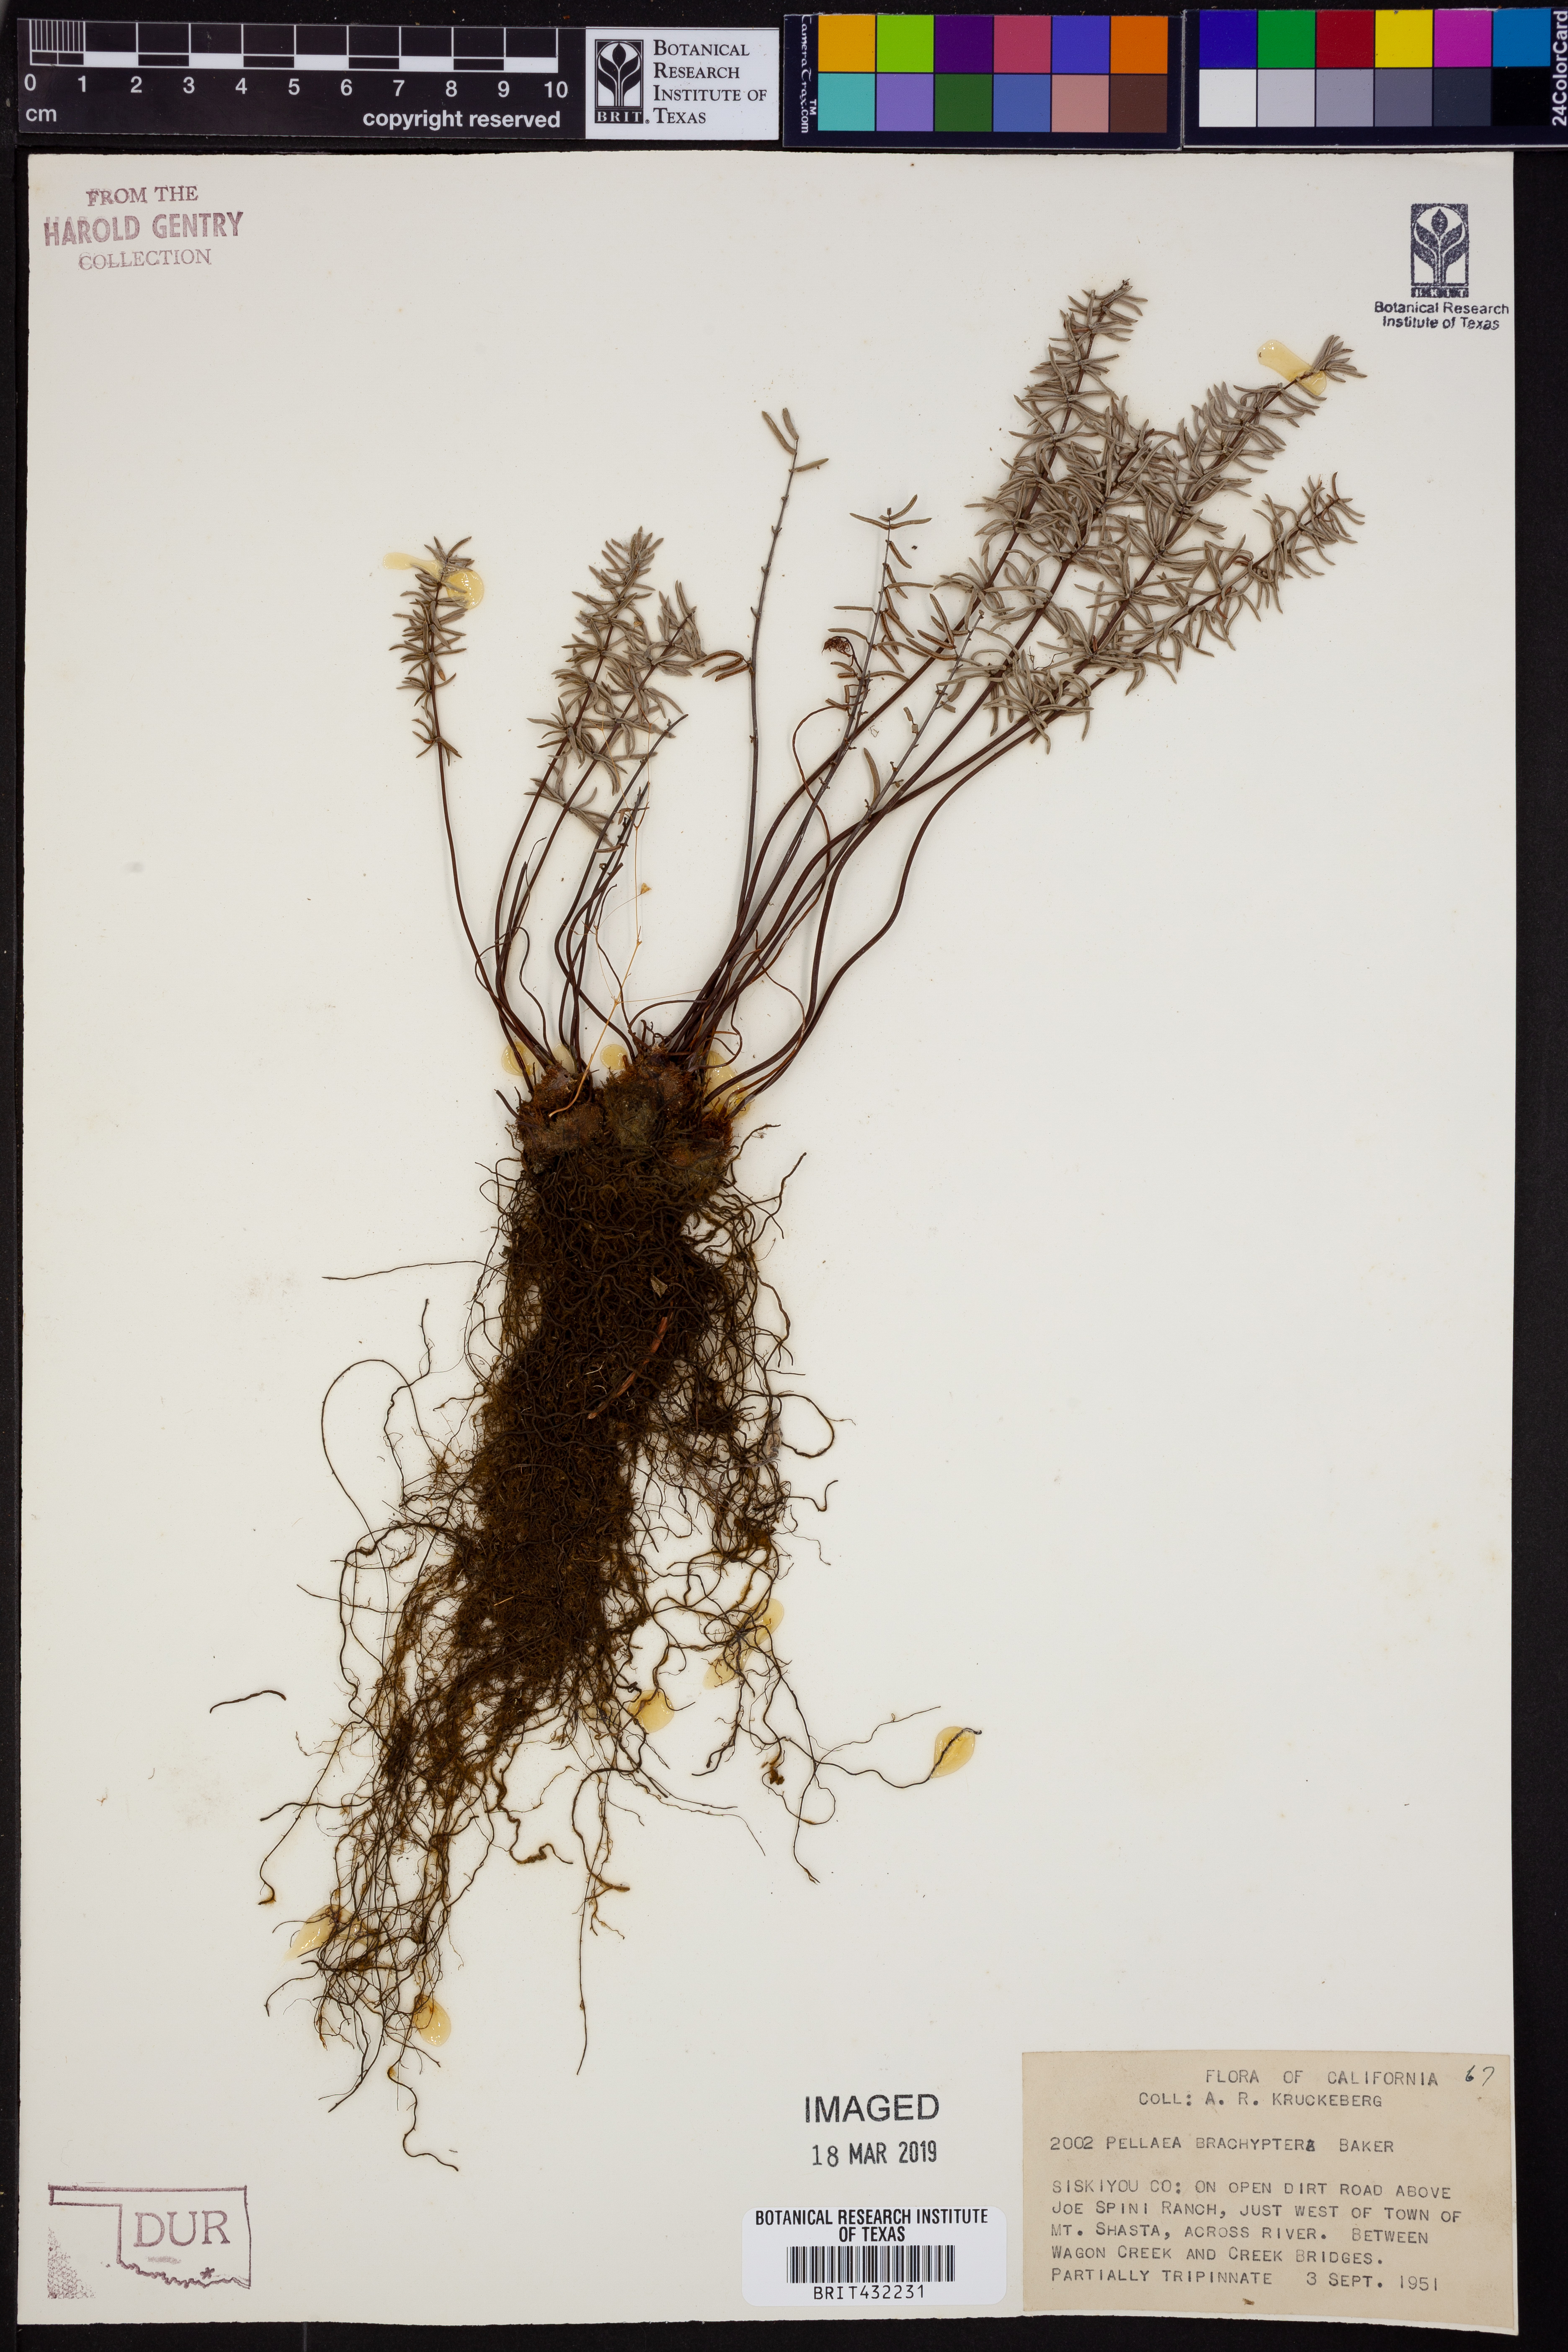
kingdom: Plantae
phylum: Tracheophyta
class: Polypodiopsida
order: Polypodiales
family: Pteridaceae
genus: Pellaea
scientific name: Pellaea brachyptera
